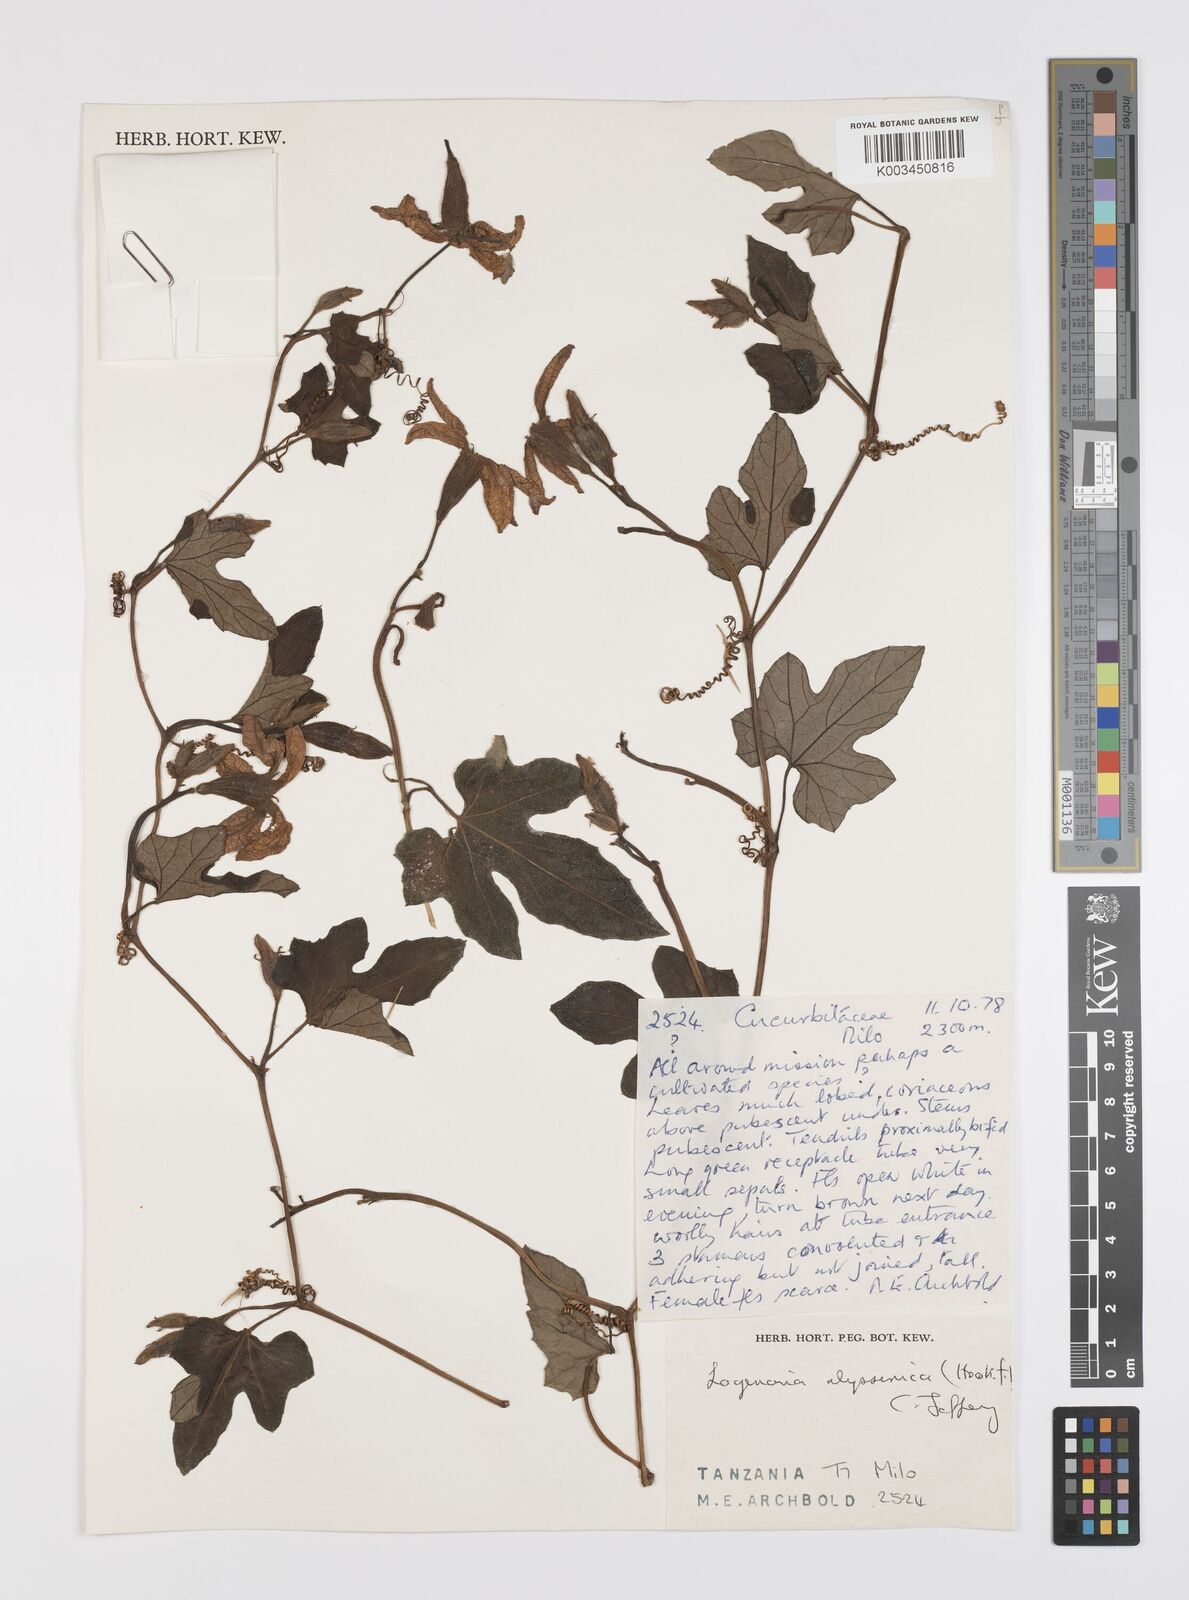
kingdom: Plantae
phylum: Tracheophyta
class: Magnoliopsida
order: Cucurbitales
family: Cucurbitaceae
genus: Lagenaria
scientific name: Lagenaria abyssinica
